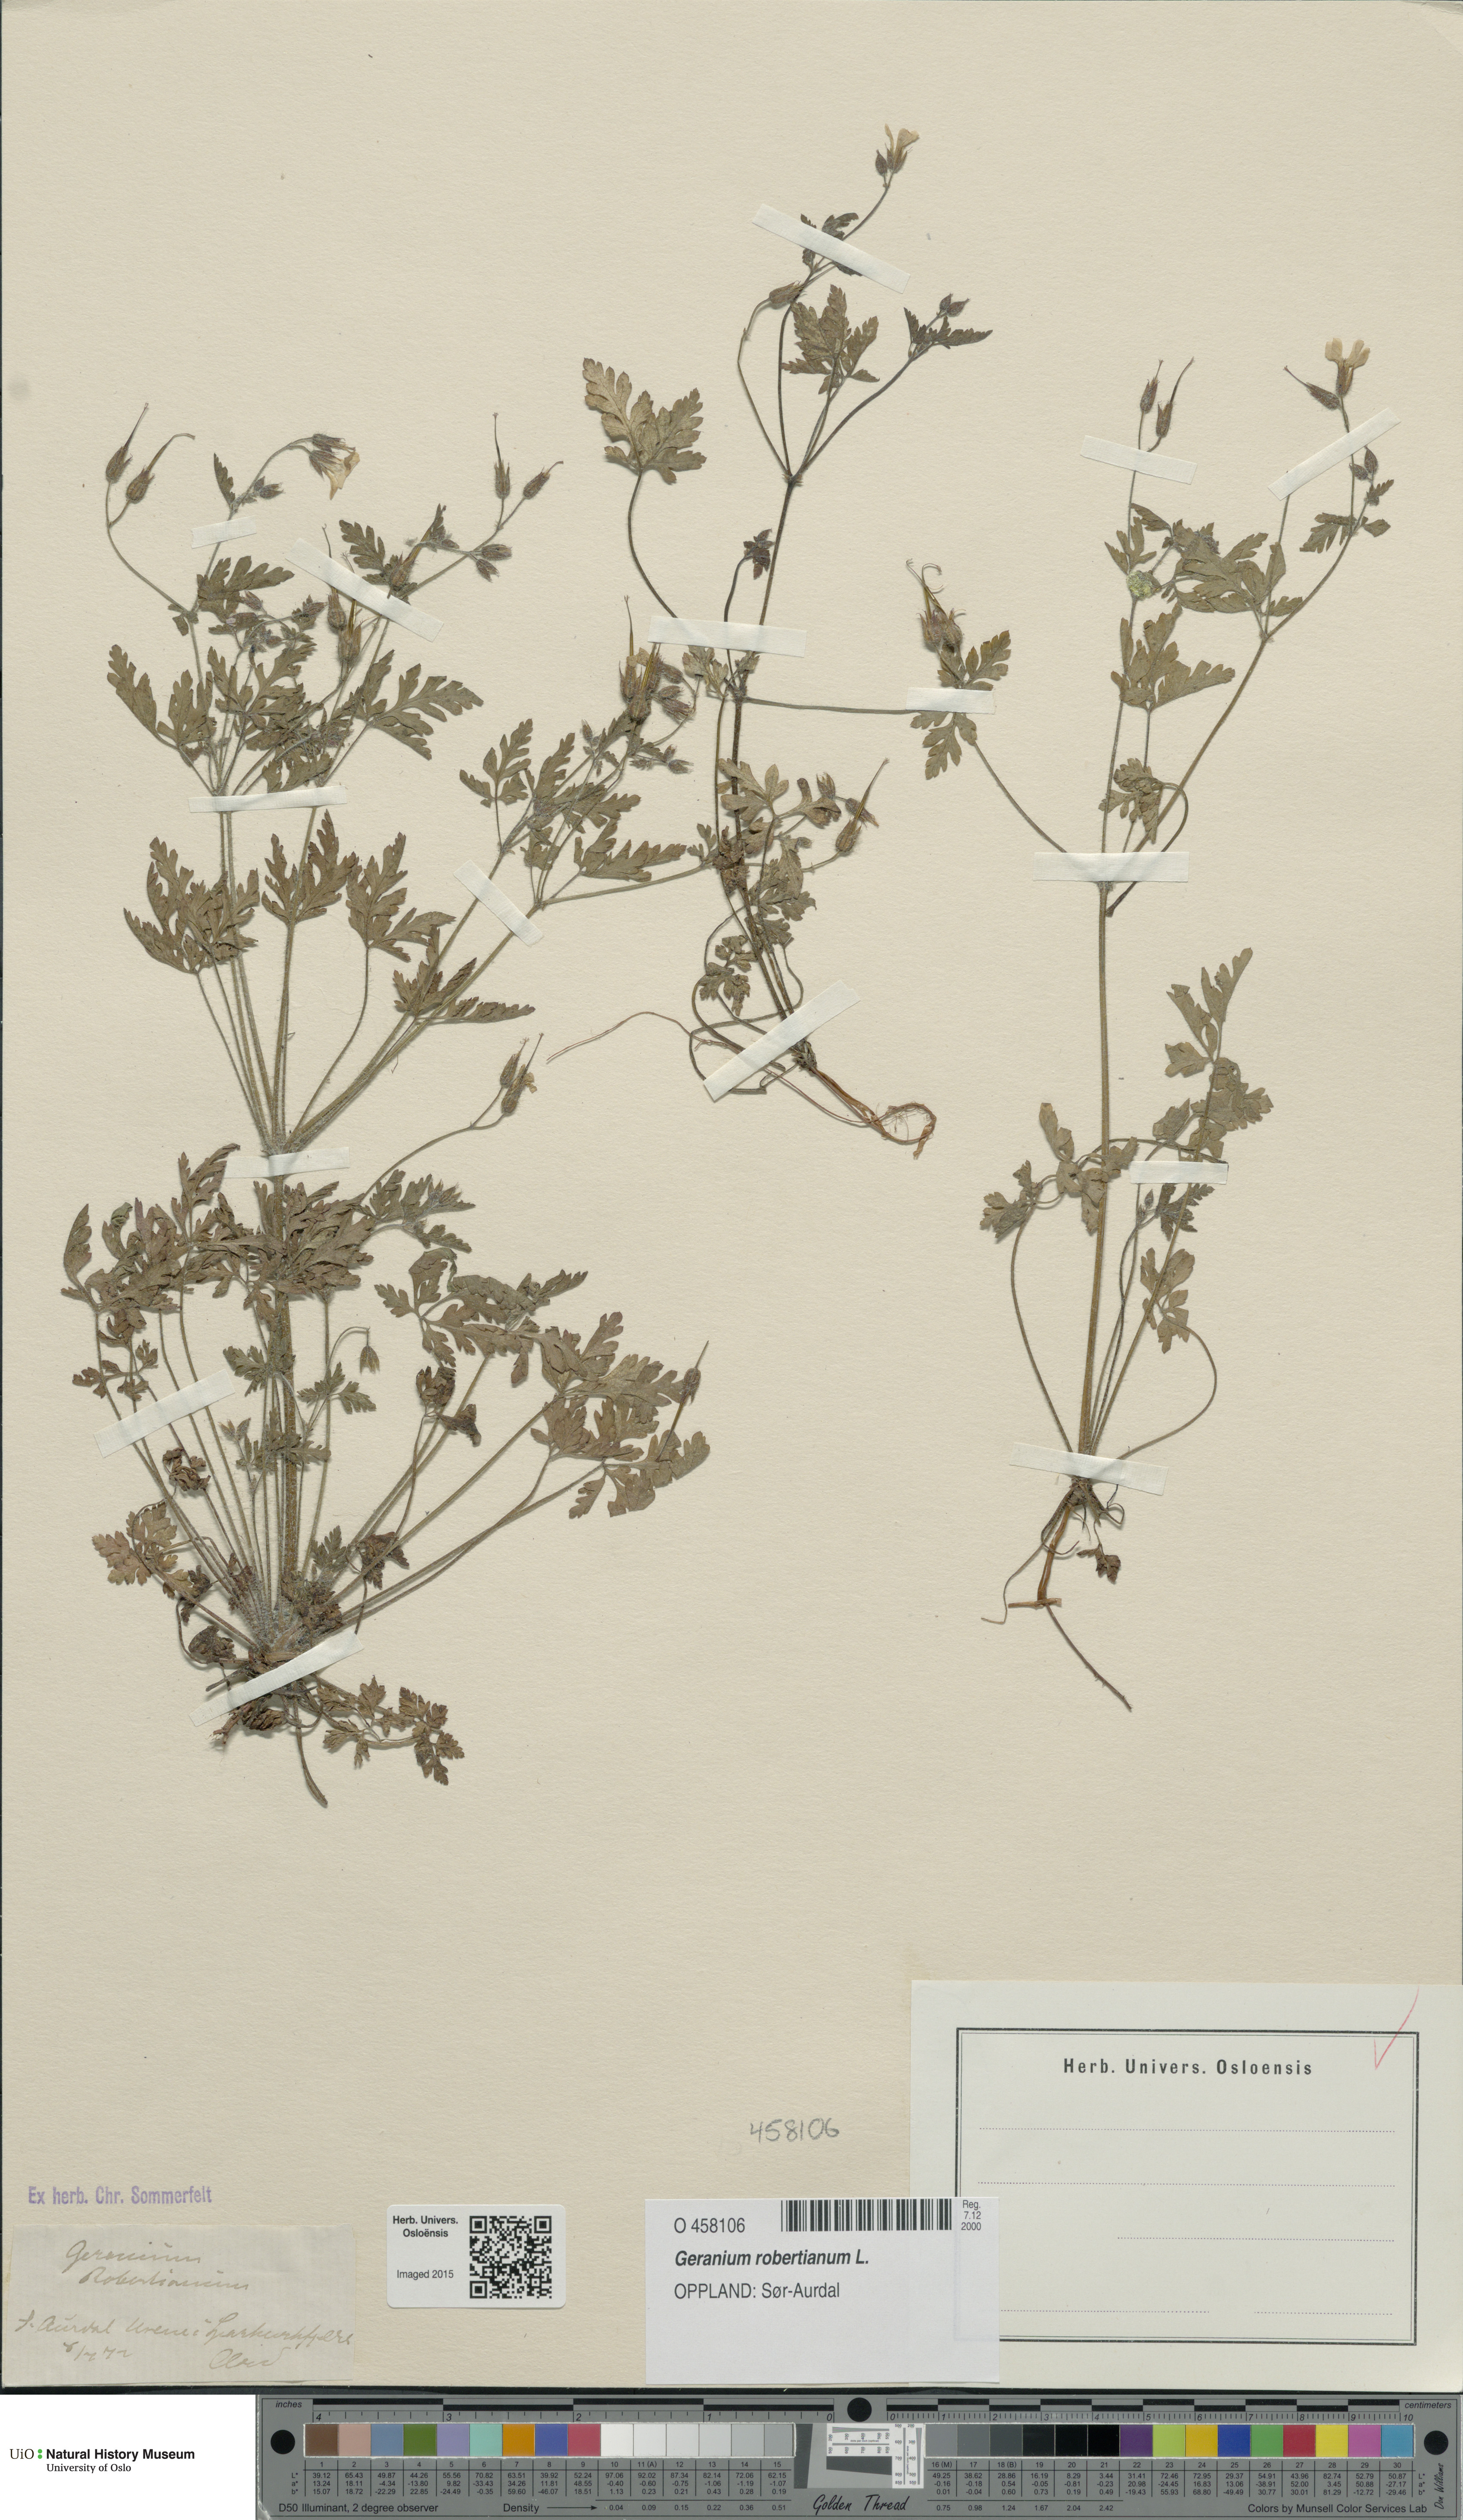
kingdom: Plantae
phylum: Tracheophyta
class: Magnoliopsida
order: Geraniales
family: Geraniaceae
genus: Geranium
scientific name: Geranium robertianum
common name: Herb-robert
